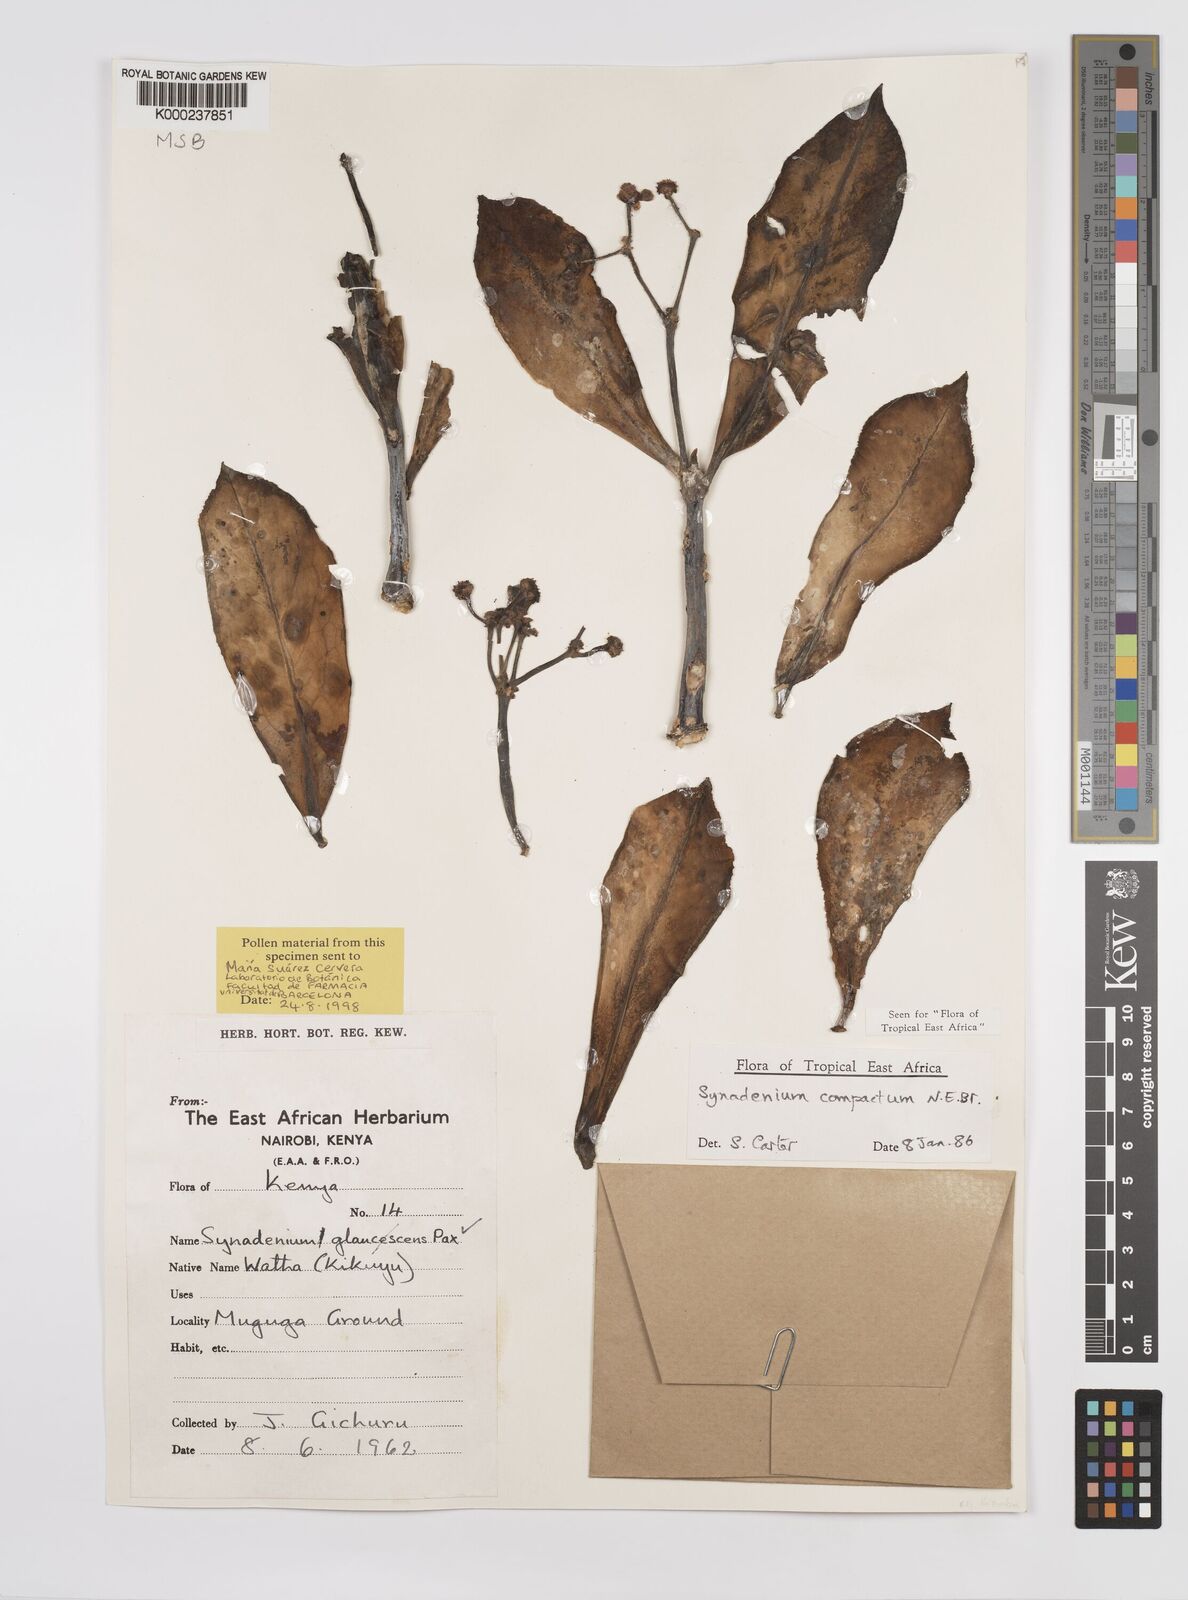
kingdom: Plantae
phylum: Tracheophyta
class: Magnoliopsida
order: Malpighiales
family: Euphorbiaceae
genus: Euphorbia
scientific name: Euphorbia bicompacta
